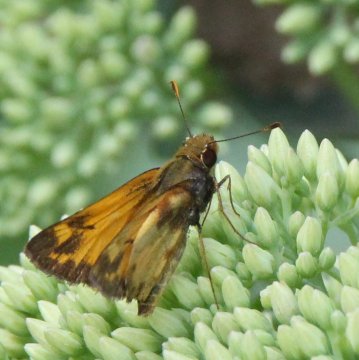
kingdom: Animalia
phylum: Arthropoda
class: Insecta
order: Lepidoptera
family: Hesperiidae
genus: Lon
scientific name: Lon zabulon
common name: Zabulon Skipper
